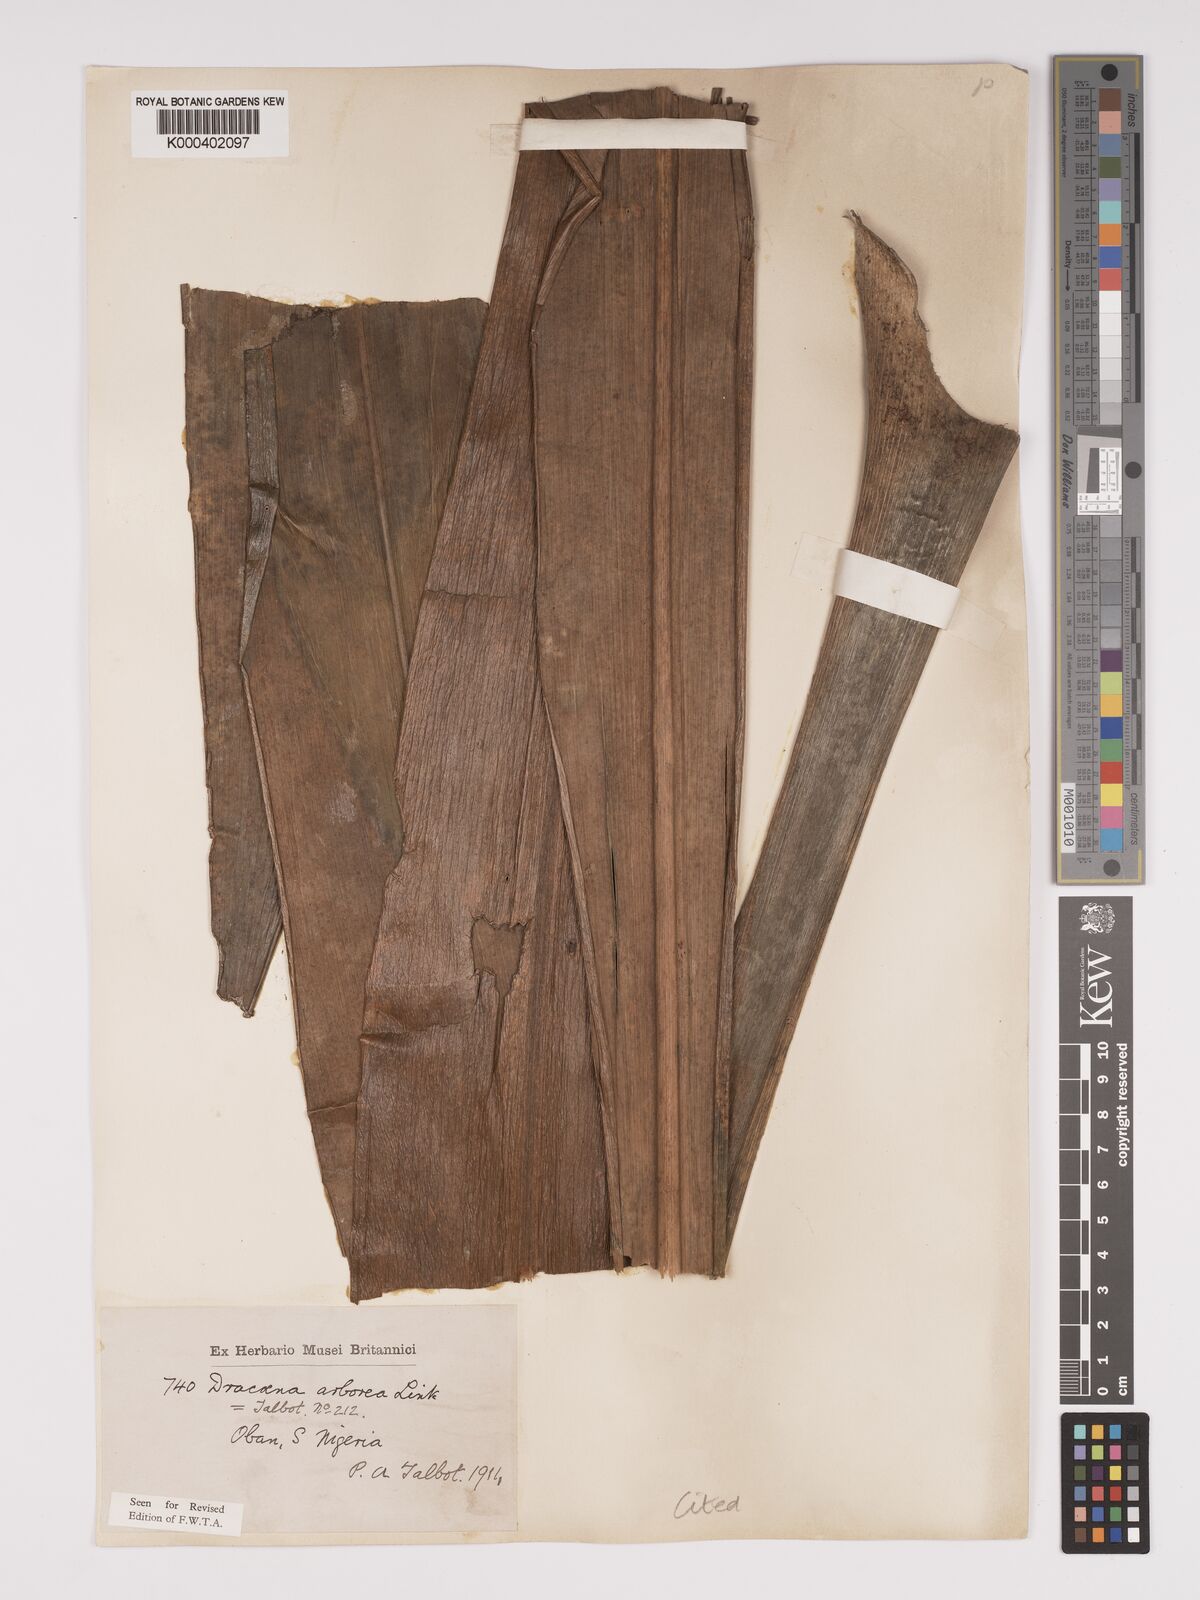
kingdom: Plantae
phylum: Tracheophyta
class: Liliopsida
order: Asparagales
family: Asparagaceae
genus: Dracaena
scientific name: Dracaena arborea
